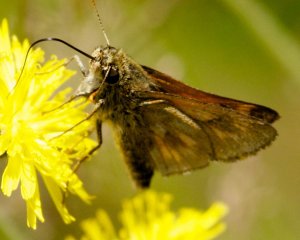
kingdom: Animalia
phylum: Arthropoda
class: Insecta
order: Lepidoptera
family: Hesperiidae
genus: Polites
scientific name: Polites
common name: Long Dash Skipper
